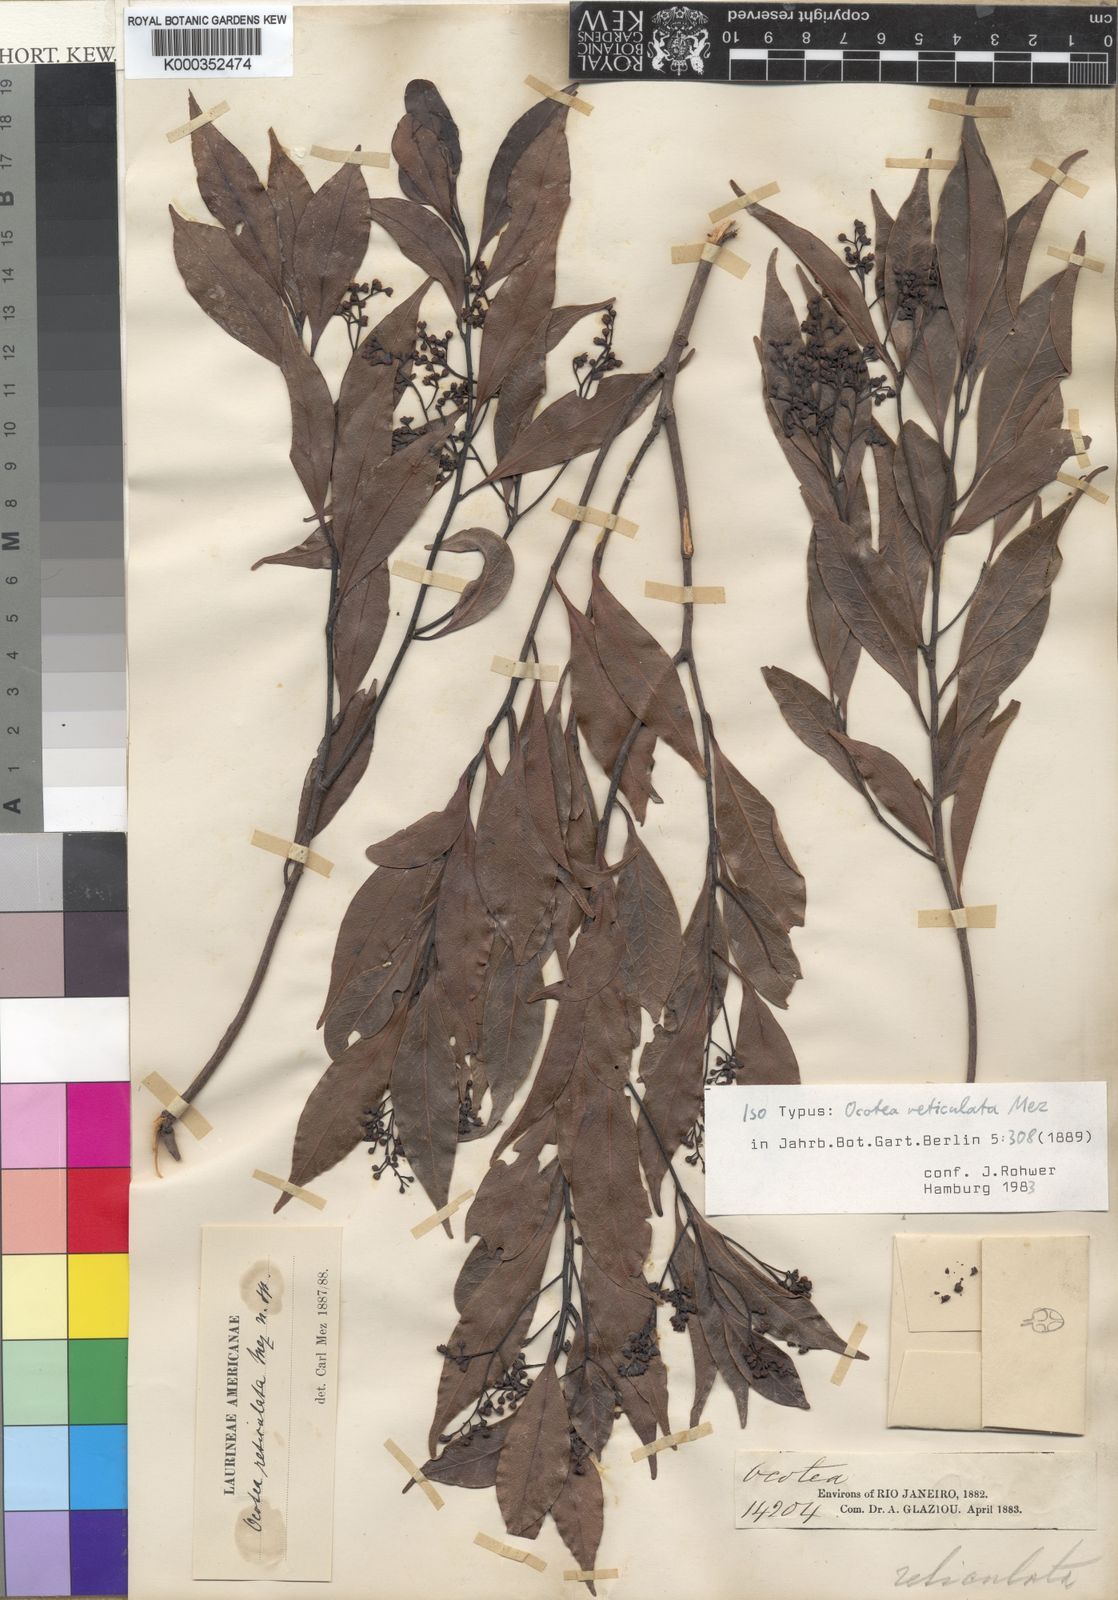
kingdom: Plantae
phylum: Tracheophyta
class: Magnoliopsida
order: Laurales
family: Lauraceae
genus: Mespilodaphne
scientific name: Mespilodaphne corymbosa
